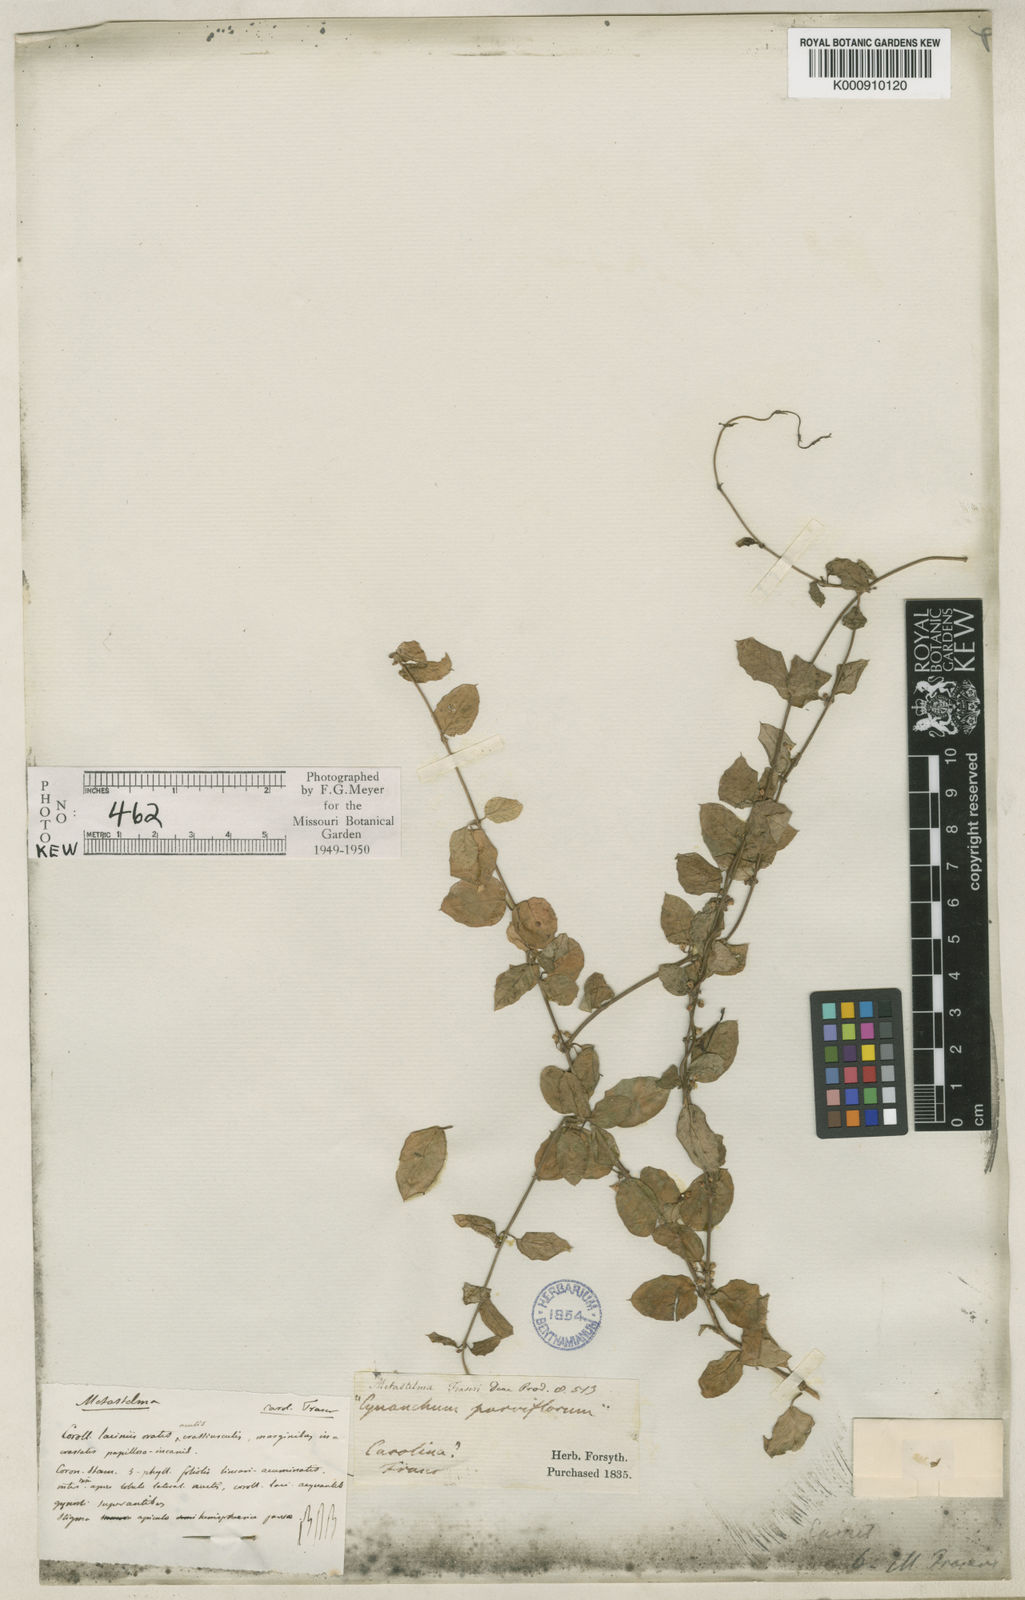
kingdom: Plantae
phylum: Tracheophyta
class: Magnoliopsida
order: Gentianales
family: Apocynaceae
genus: Cynanchum
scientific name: Cynanchum proctorianum
